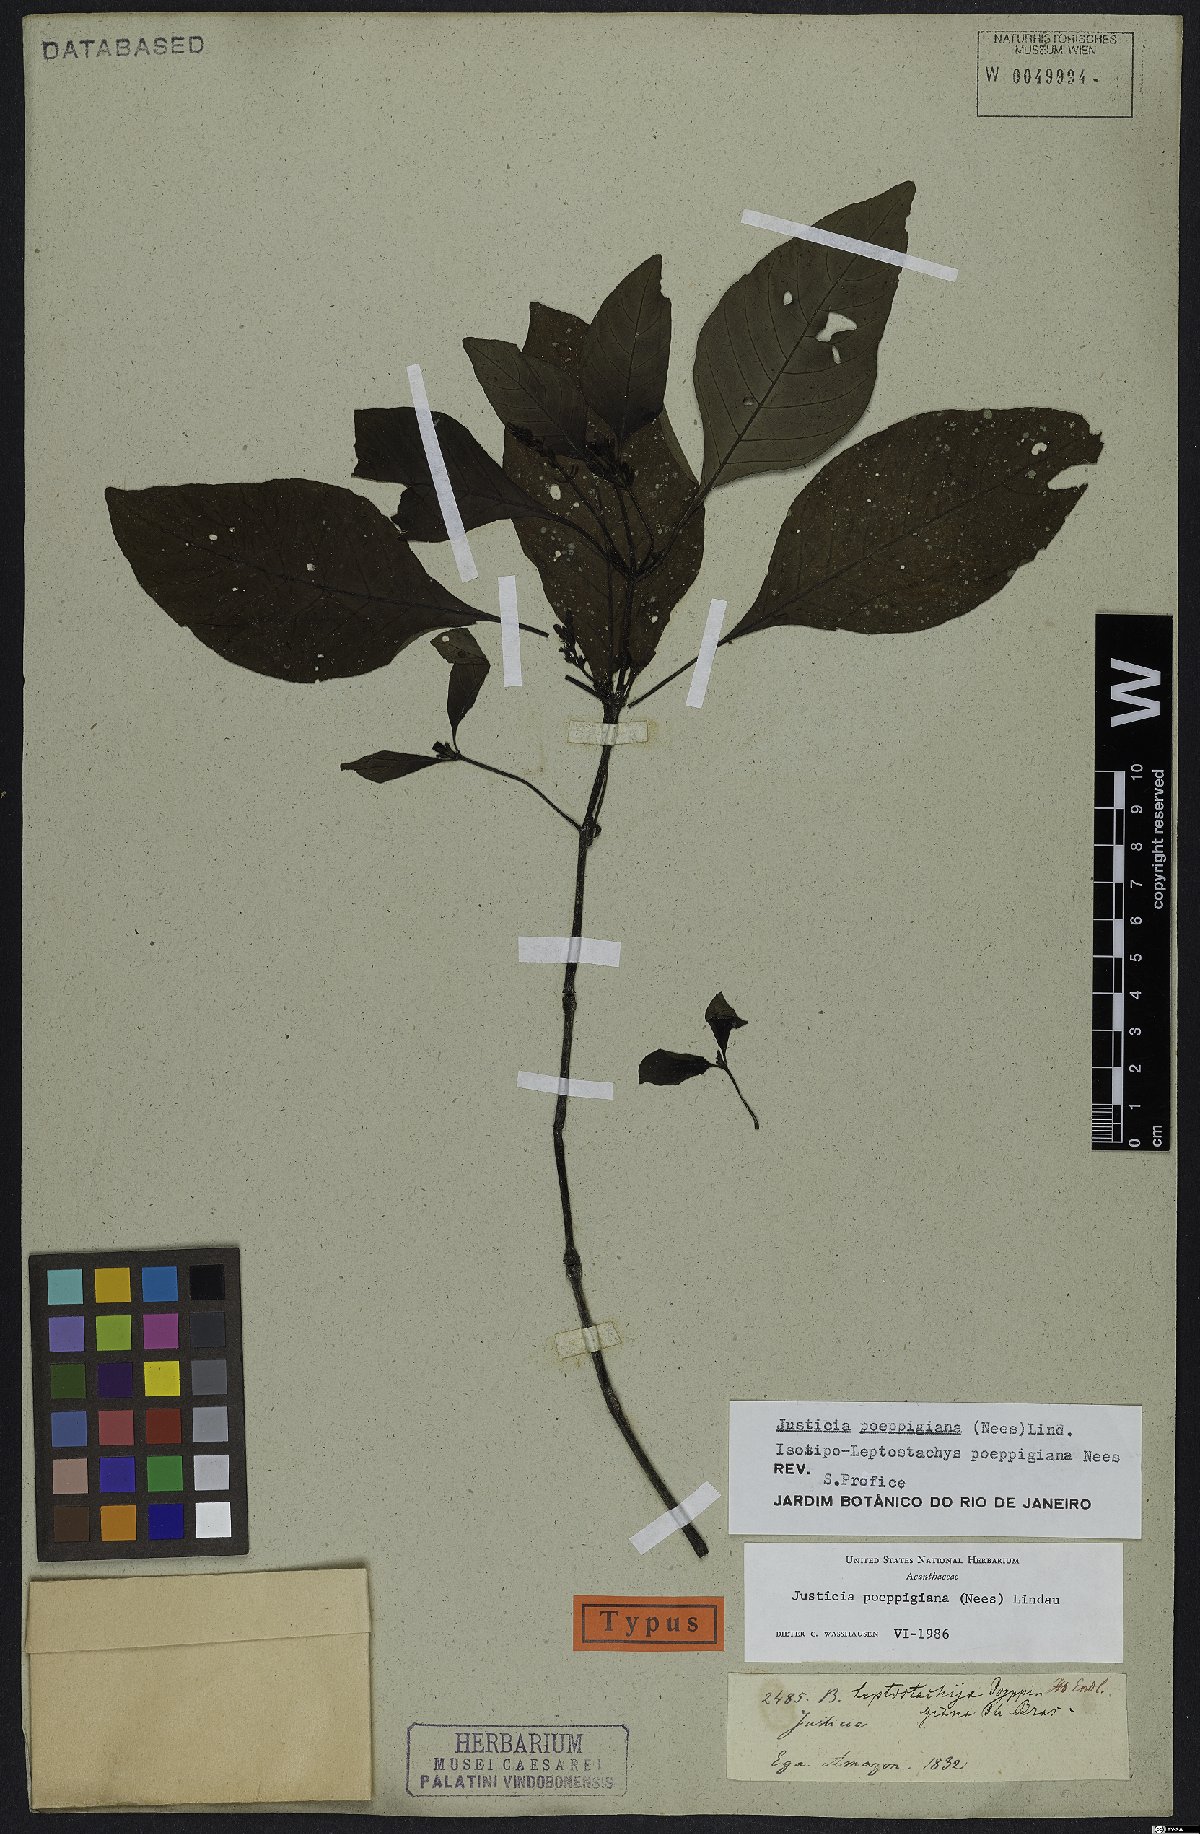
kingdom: Plantae
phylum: Tracheophyta
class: Magnoliopsida
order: Lamiales
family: Acanthaceae
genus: Justicia
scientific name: Justicia poeppigiana
